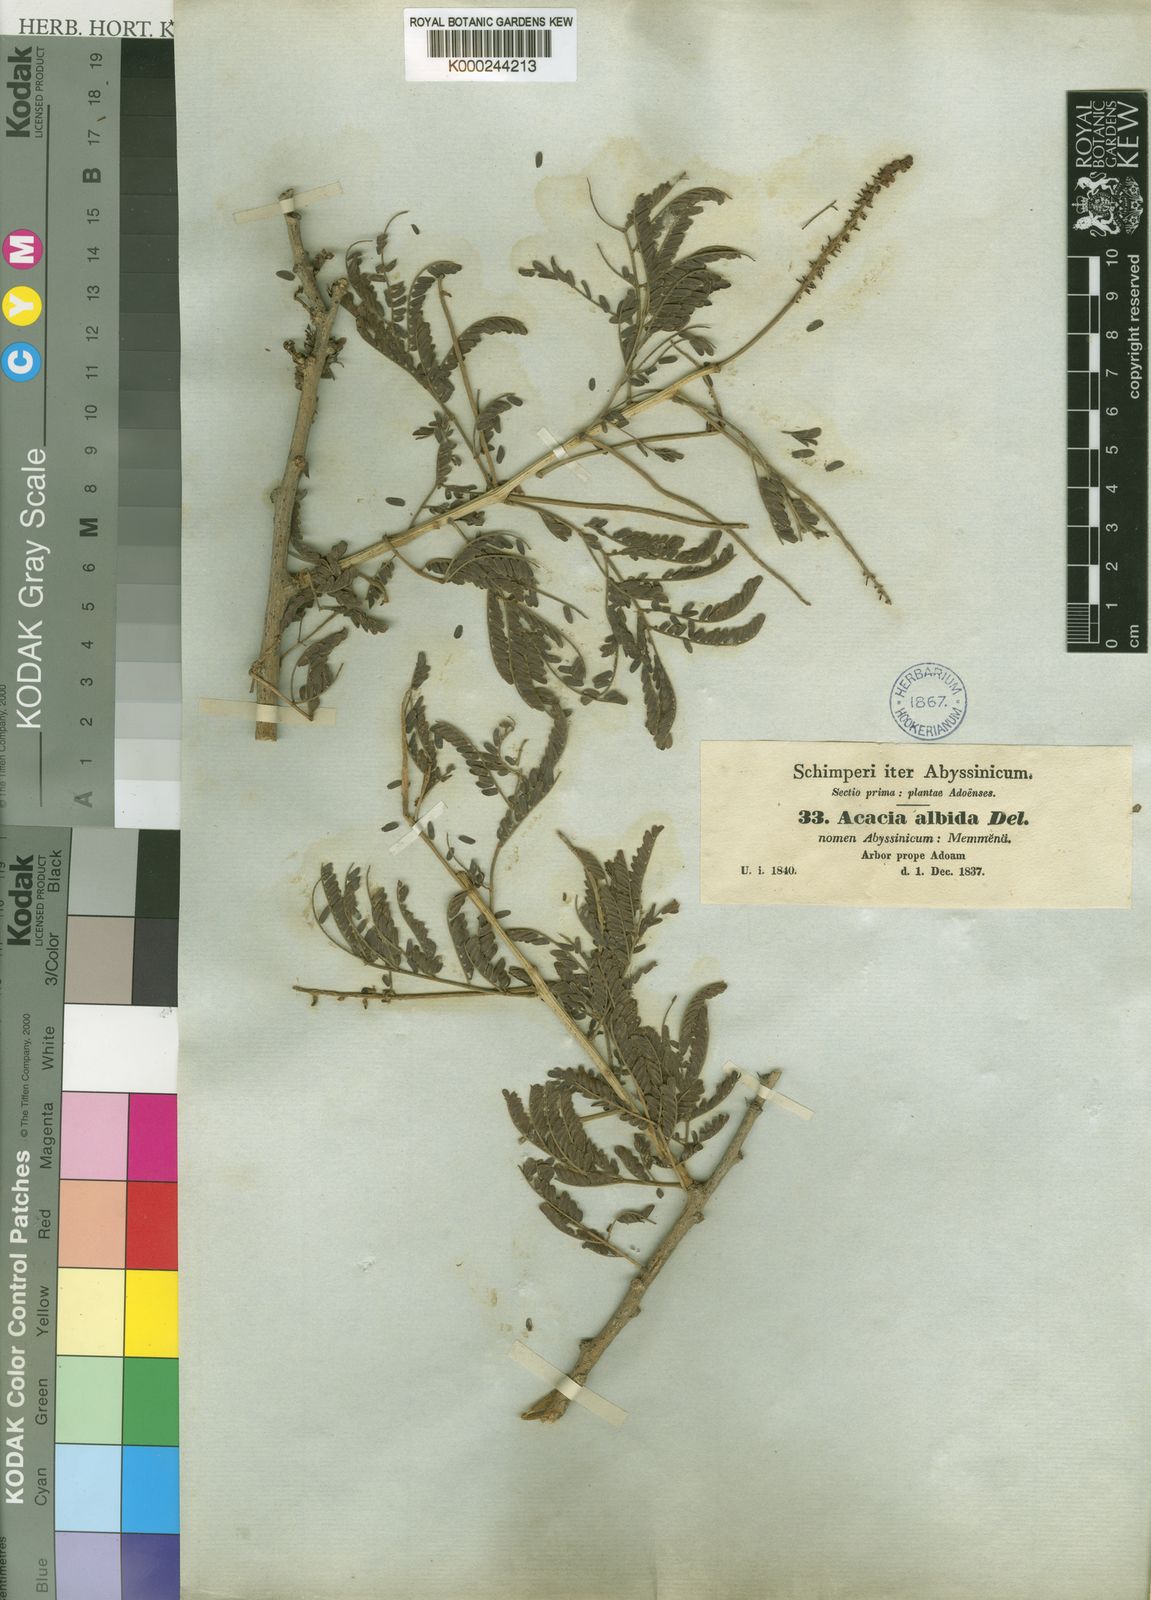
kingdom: Plantae
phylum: Tracheophyta
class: Magnoliopsida
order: Fabales
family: Fabaceae
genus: Faidherbia
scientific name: Faidherbia albida
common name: Anatree
